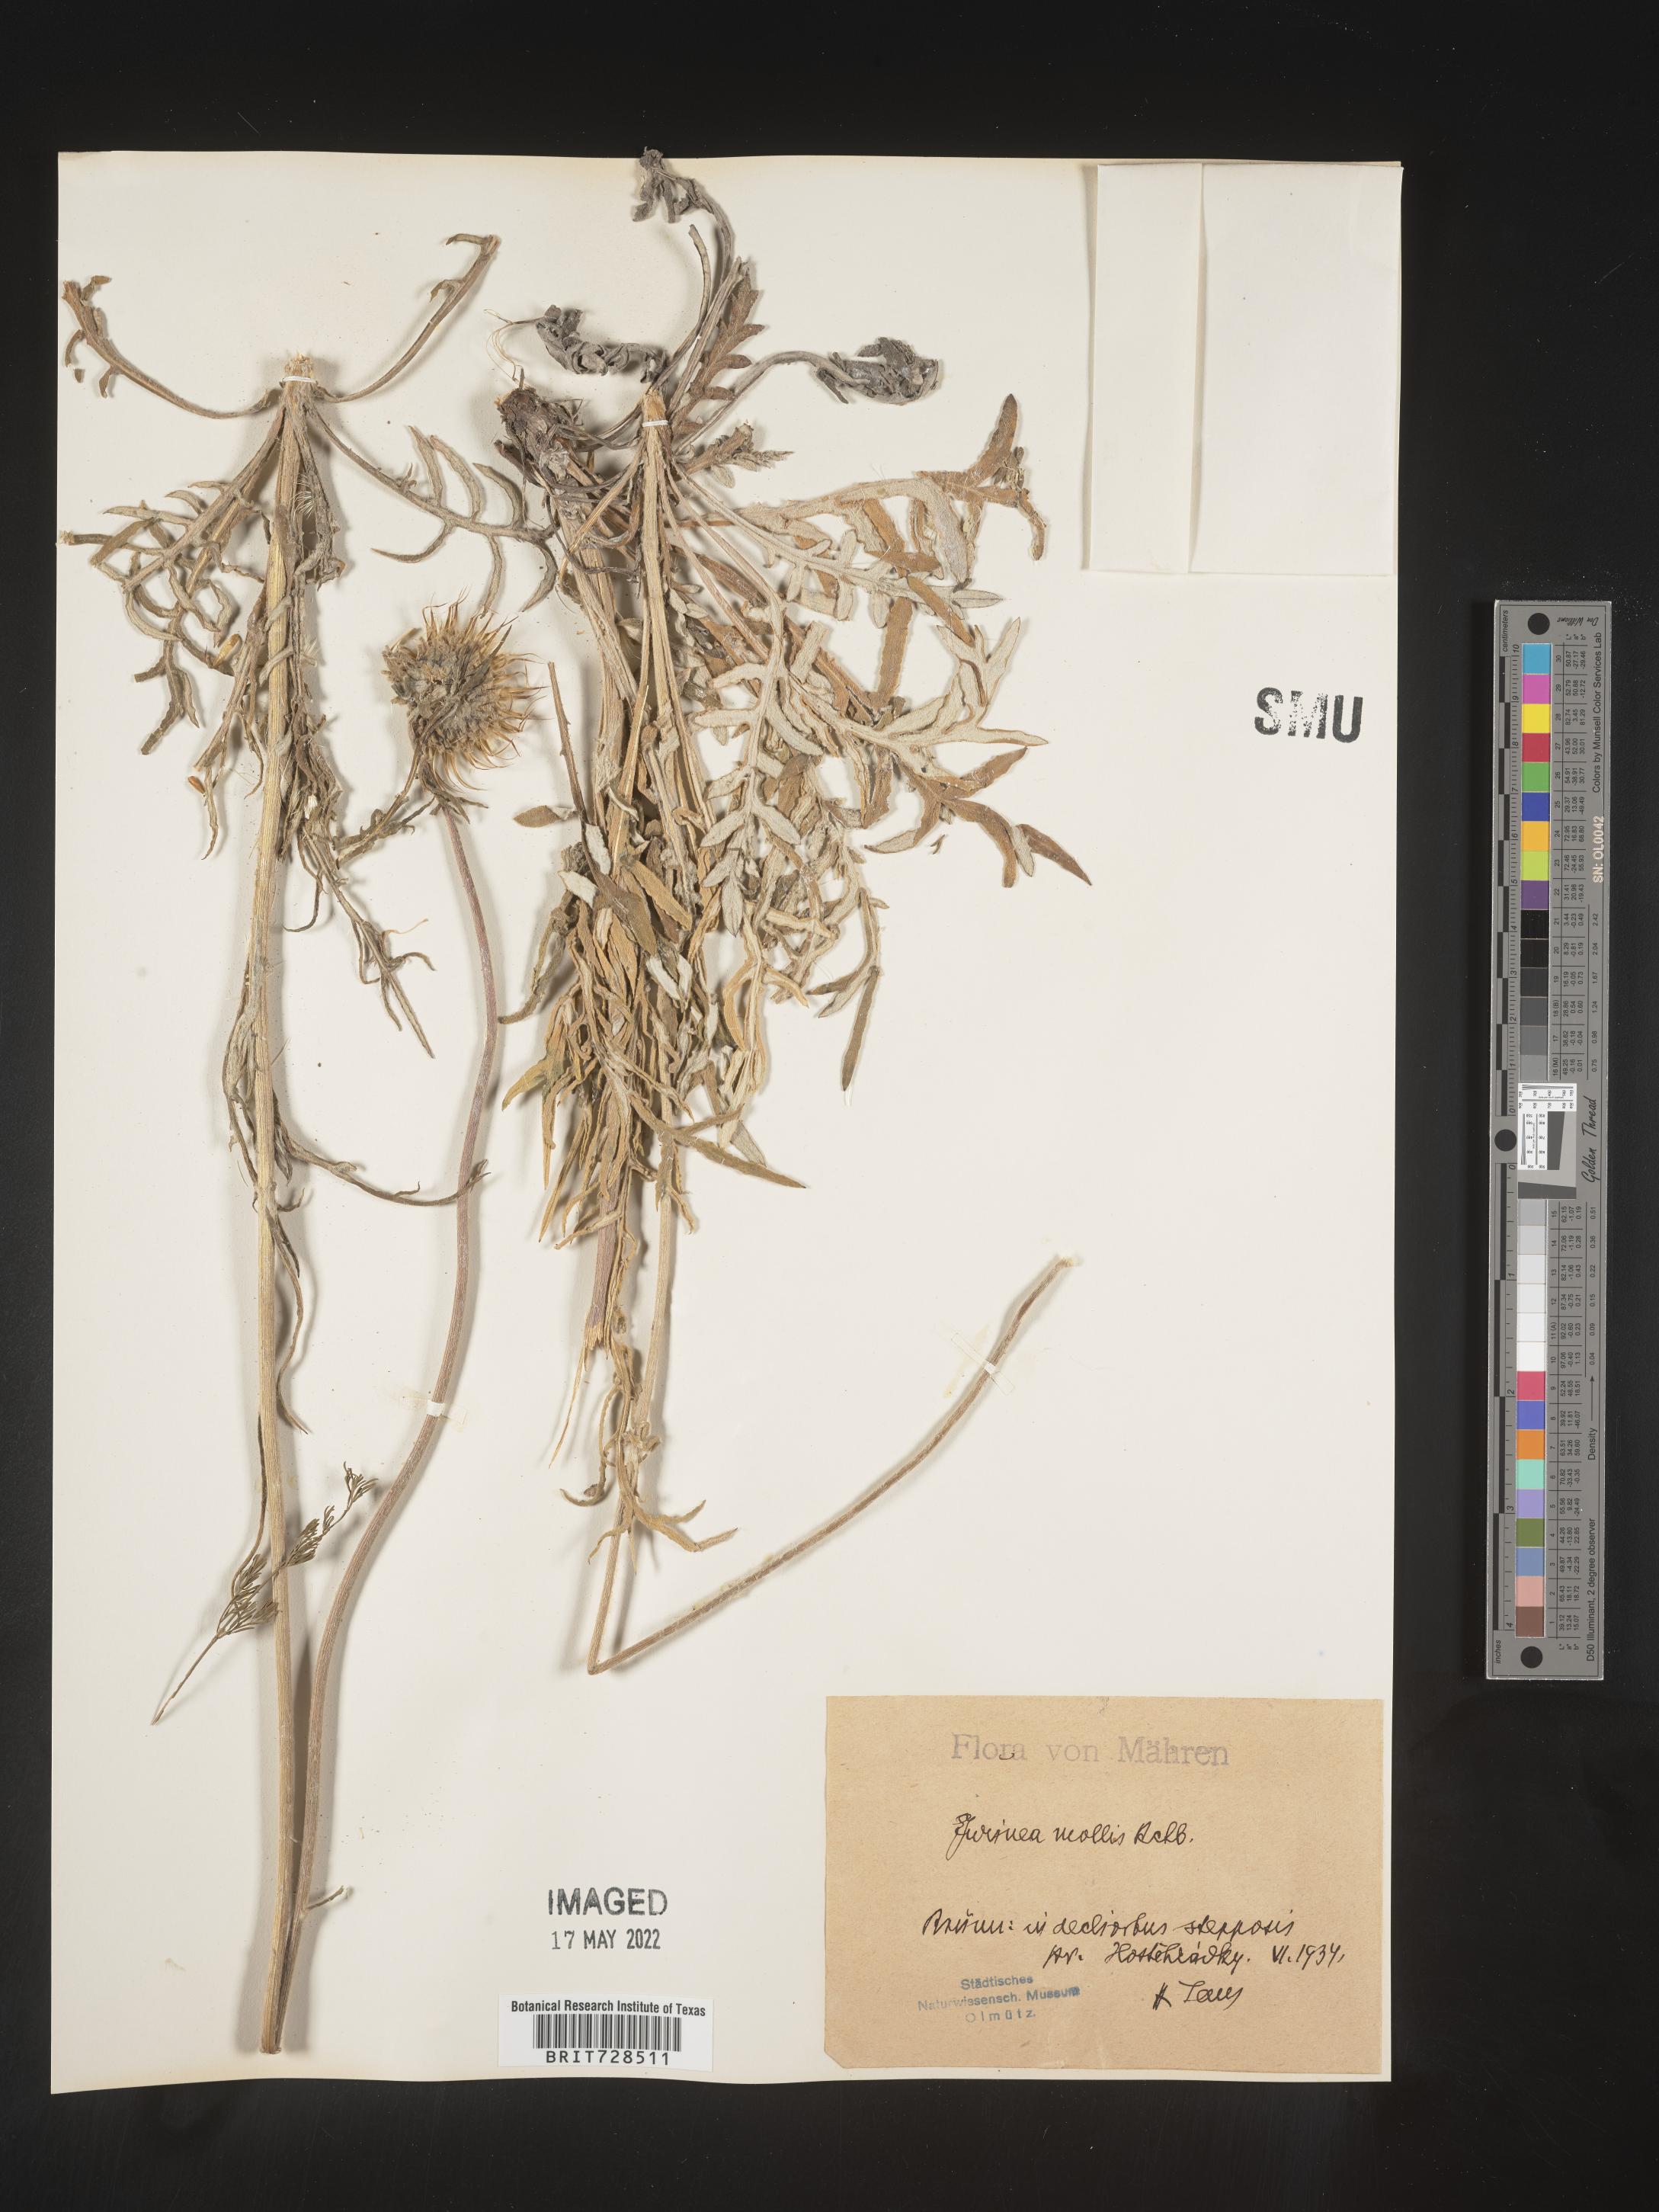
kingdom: Plantae
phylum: Tracheophyta
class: Magnoliopsida
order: Asterales
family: Asteraceae
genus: Jurinea
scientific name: Jurinea
